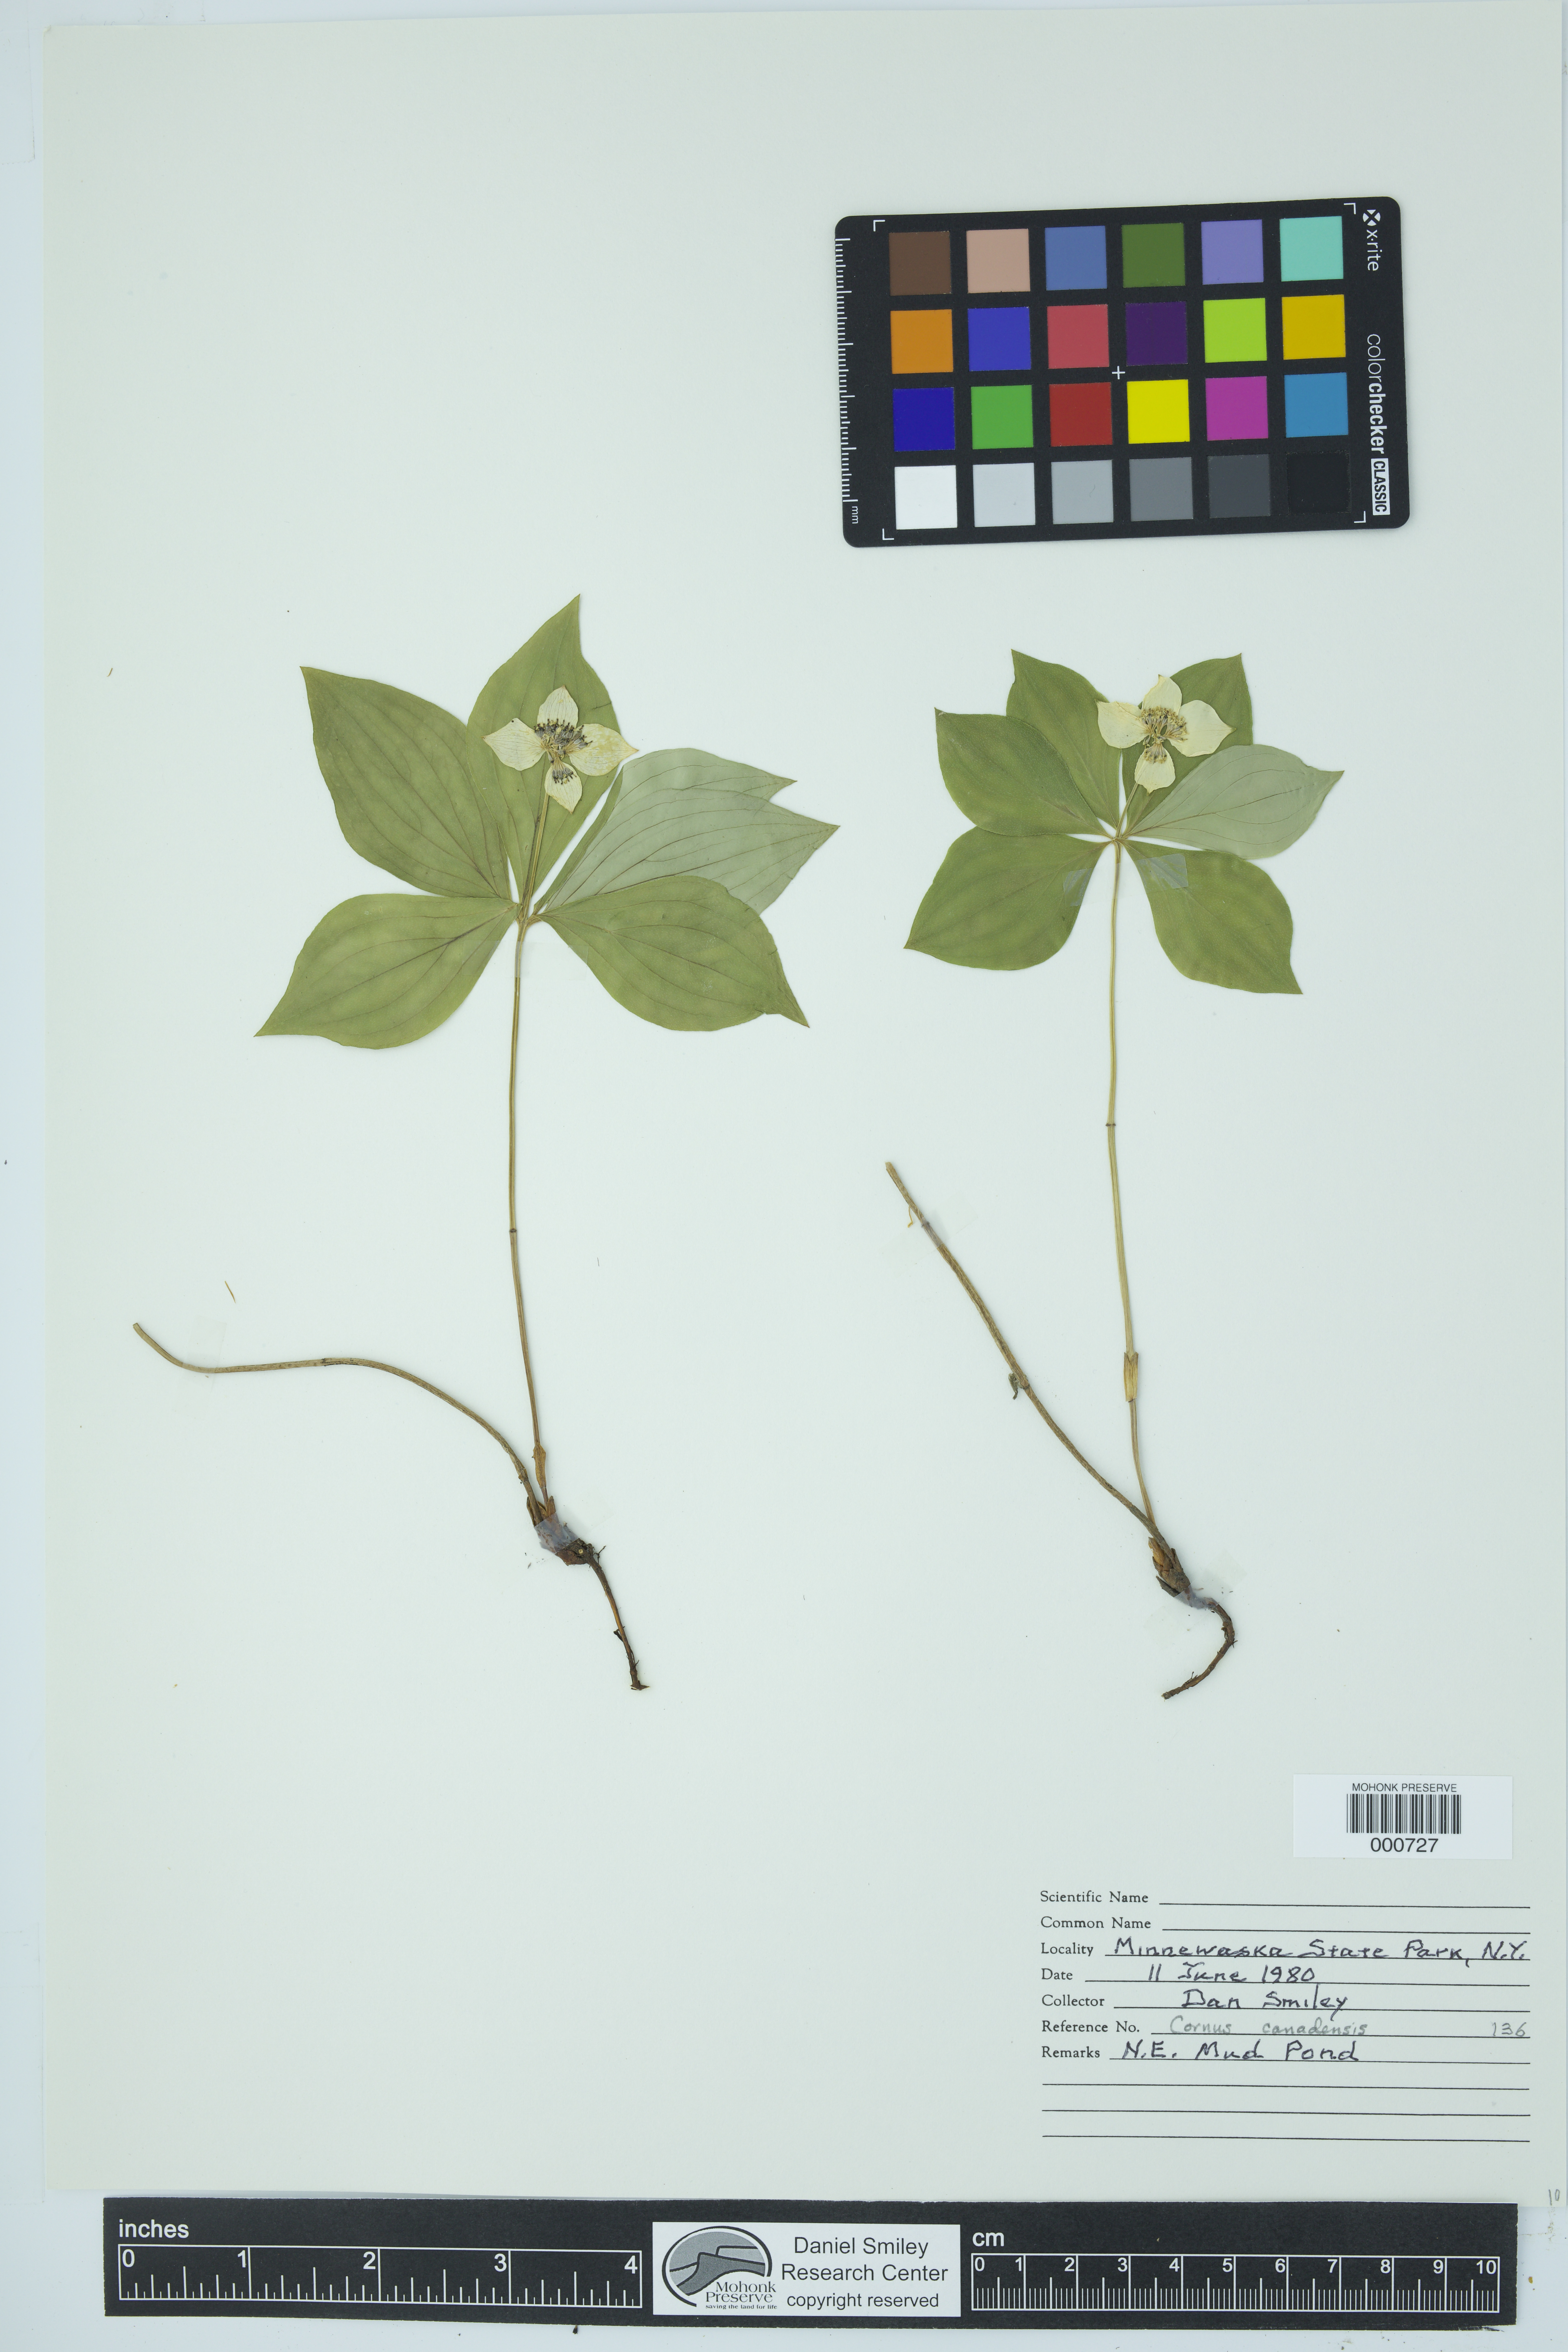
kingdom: Plantae
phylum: Tracheophyta
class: Magnoliopsida
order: Cornales
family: Cornaceae
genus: Cornus
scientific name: Cornus canadensis
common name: Creeping dogwood
